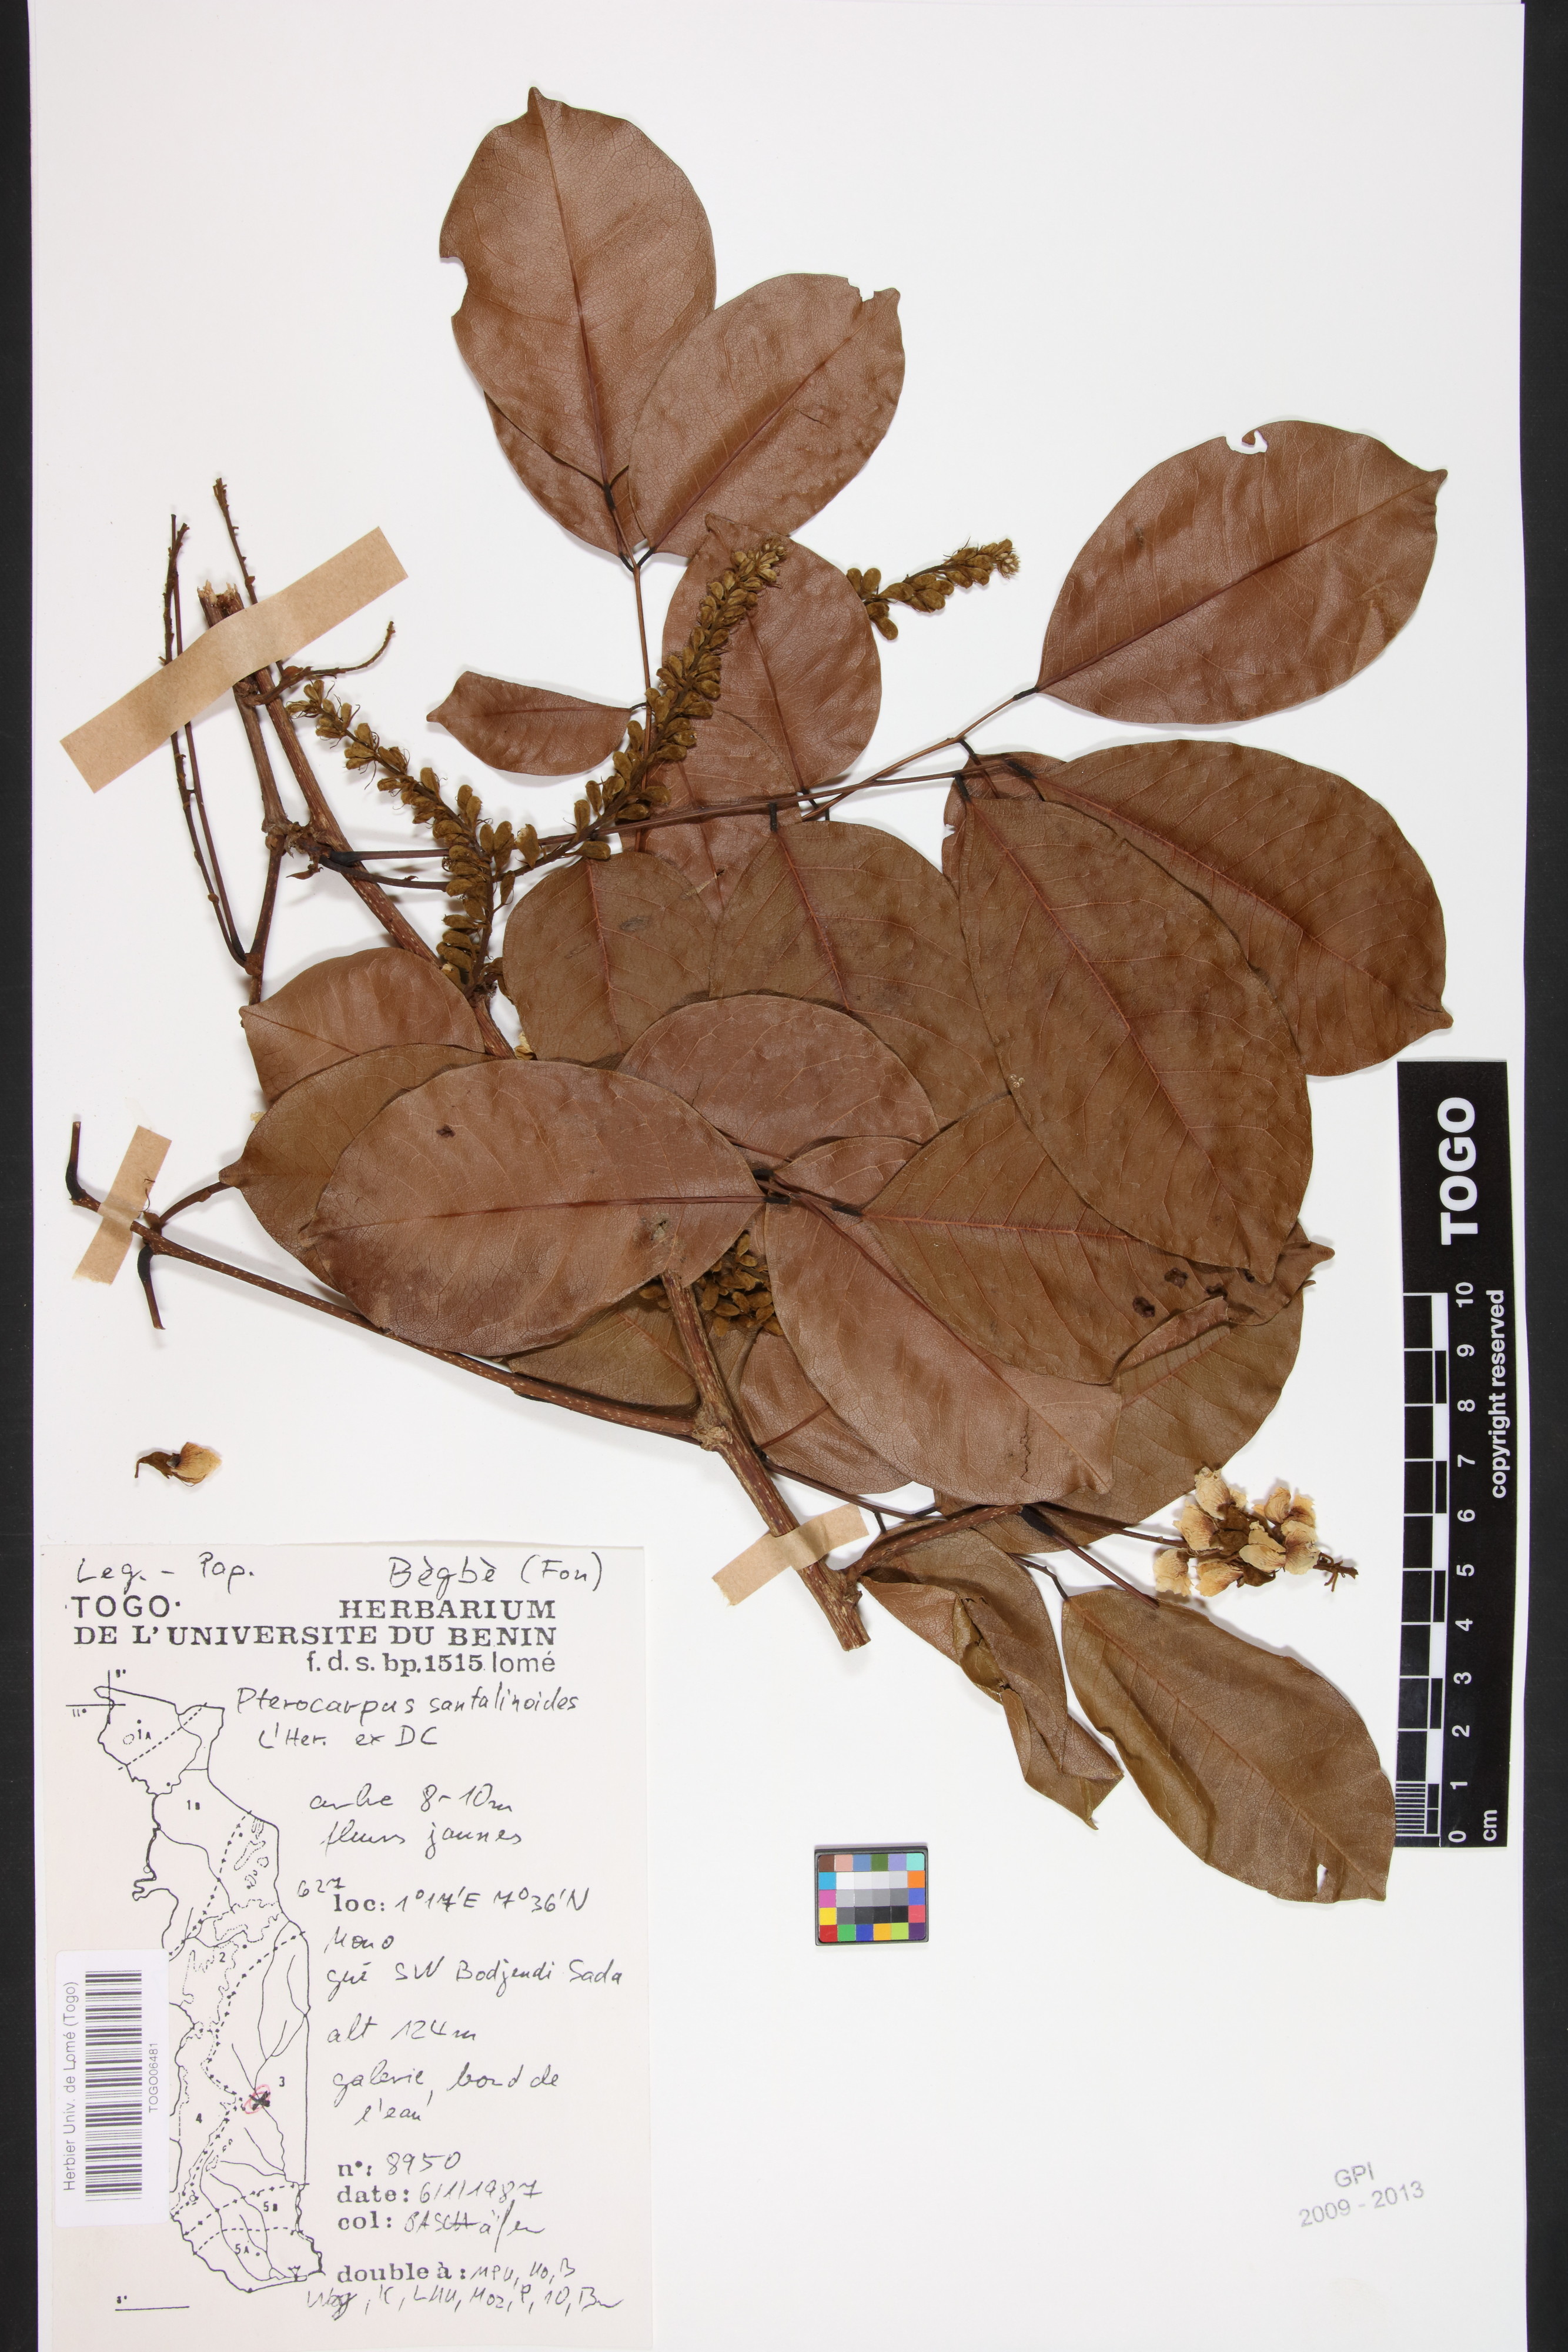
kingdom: Plantae
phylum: Tracheophyta
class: Magnoliopsida
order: Fabales
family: Fabaceae
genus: Pterocarpus
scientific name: Pterocarpus santalinoides
